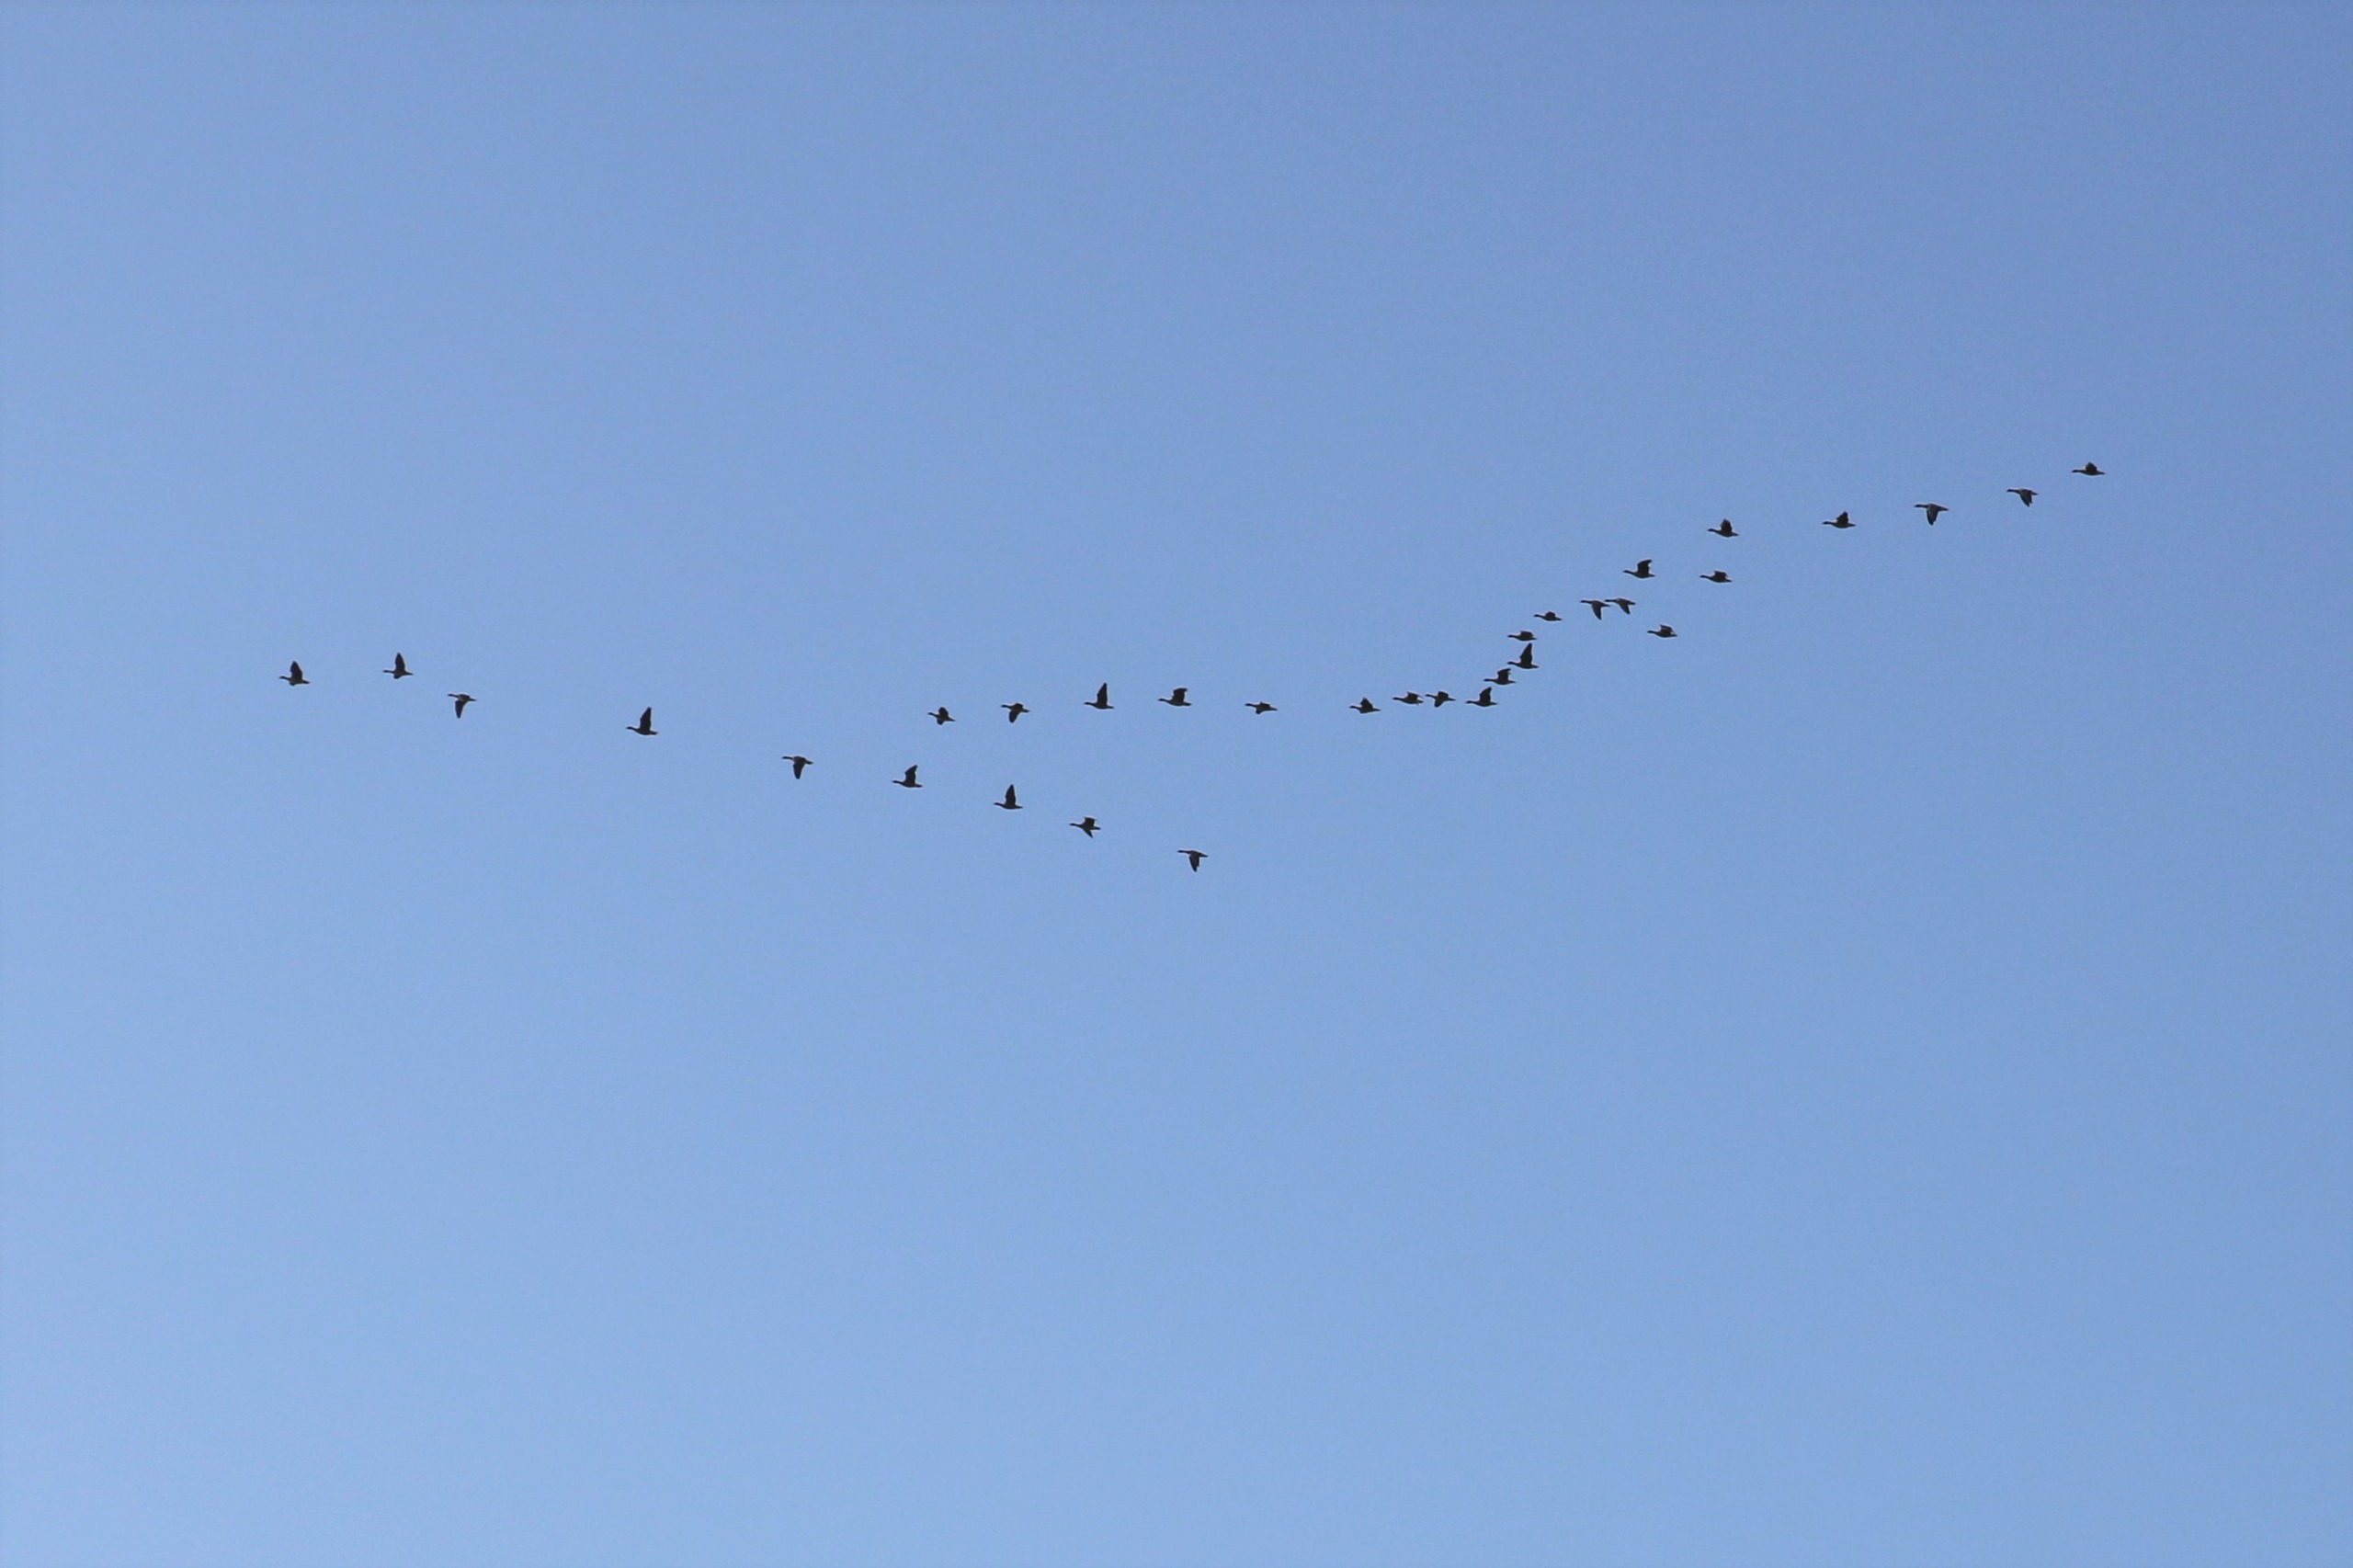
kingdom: Animalia
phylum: Chordata
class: Aves
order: Anseriformes
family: Anatidae
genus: Anser
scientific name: Anser brachyrhynchus
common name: Kortnæbbet gås
